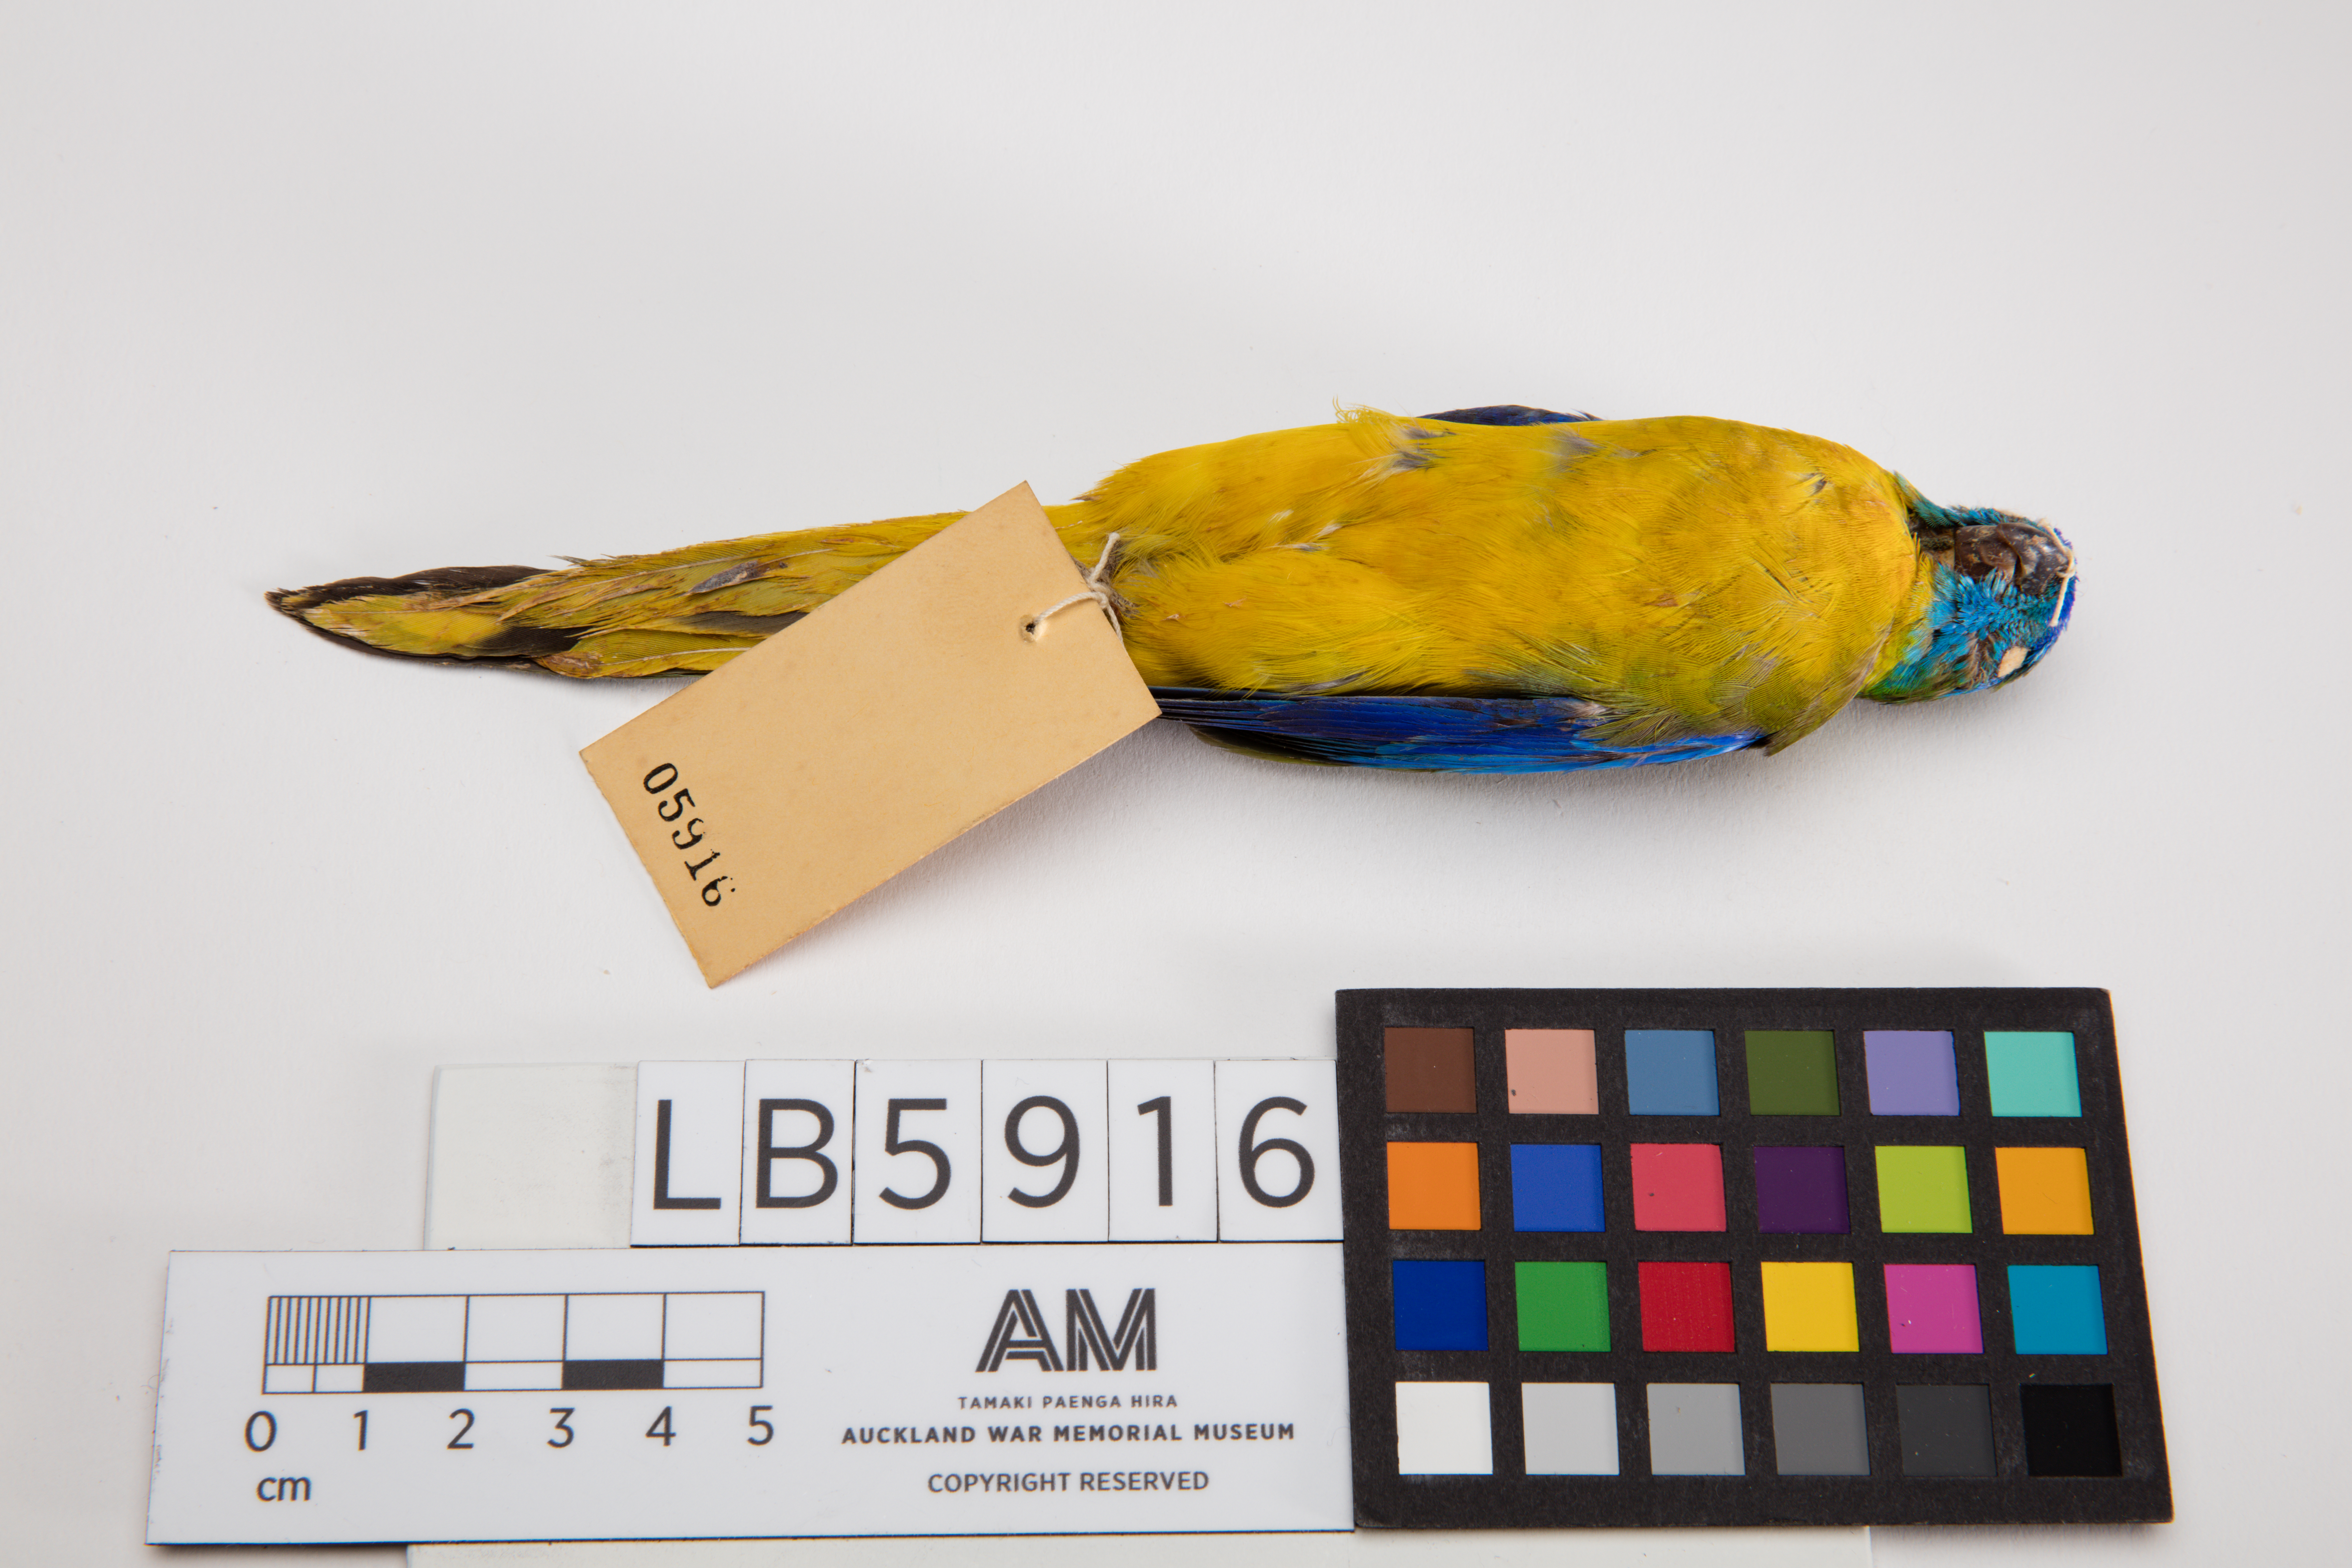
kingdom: Animalia
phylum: Chordata
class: Aves
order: Psittaciformes
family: Psittacidae
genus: Neophema
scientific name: Neophema pulchella
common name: Turquoise parrot
